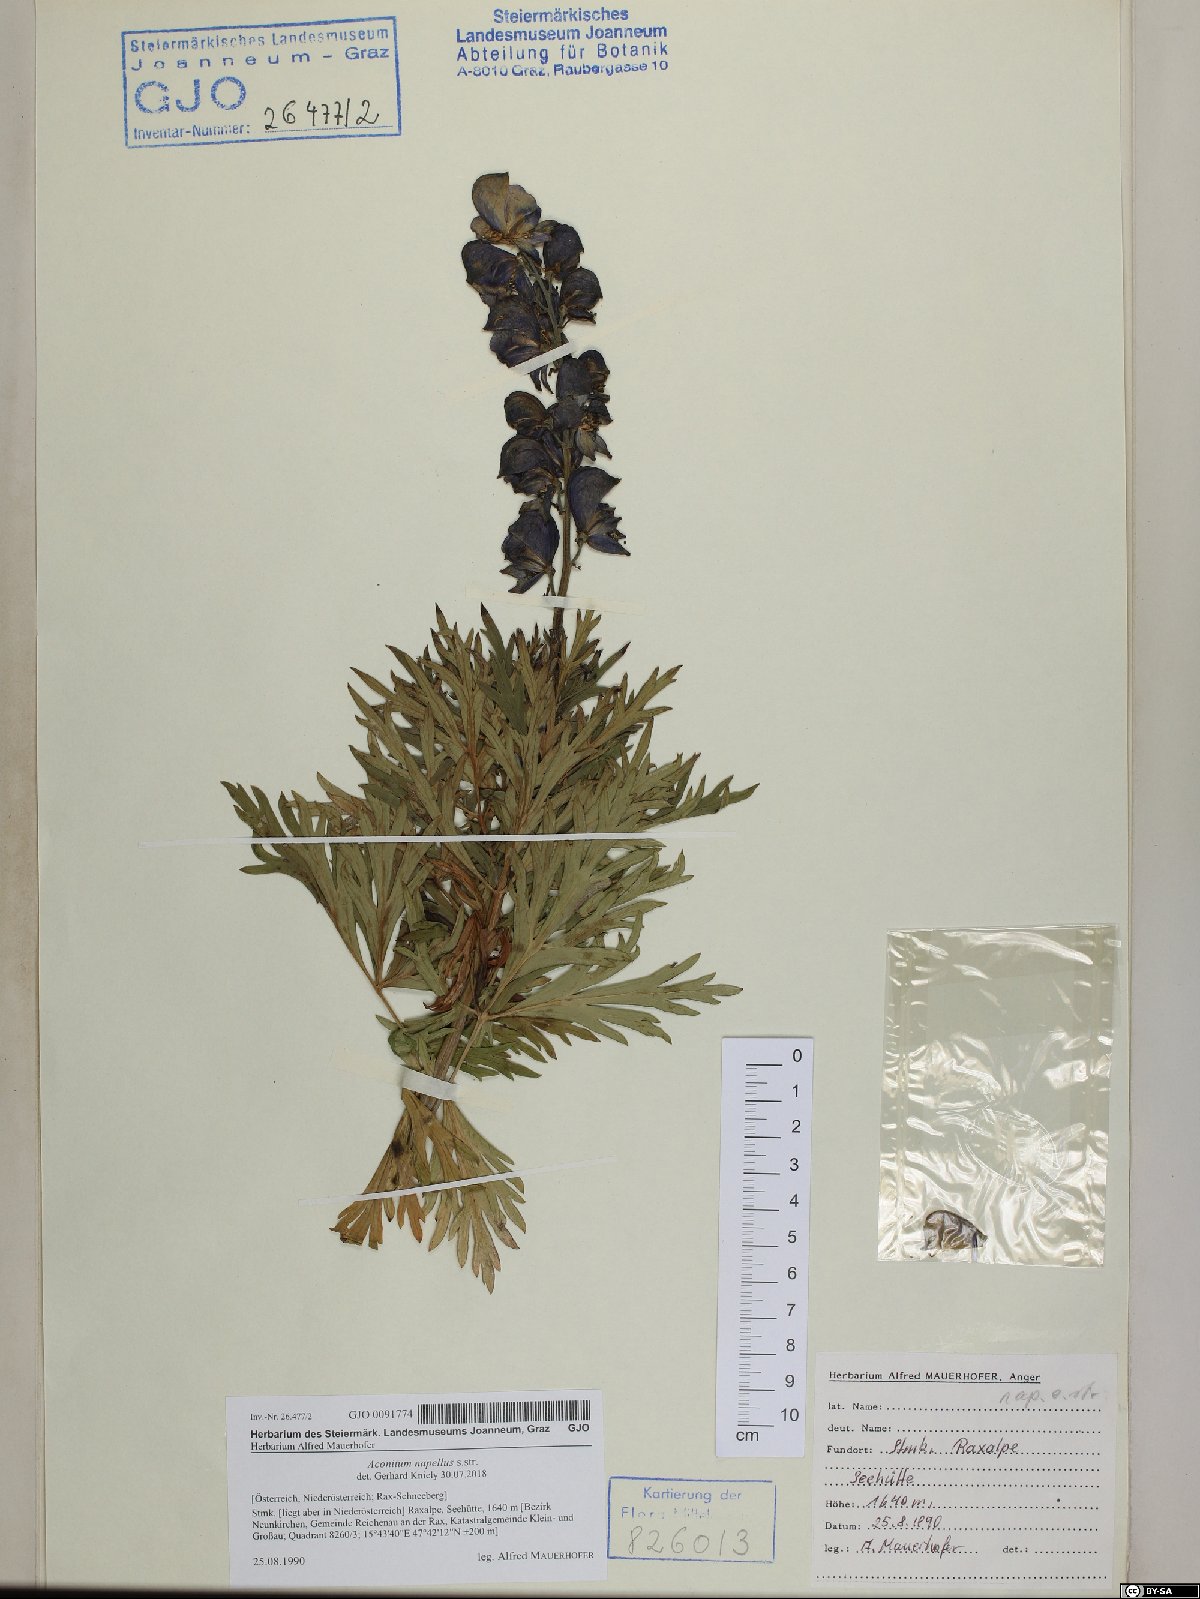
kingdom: Plantae
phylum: Tracheophyta
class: Magnoliopsida
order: Ranunculales
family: Ranunculaceae
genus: Aconitum
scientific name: Aconitum napellus
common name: Garden monkshood
